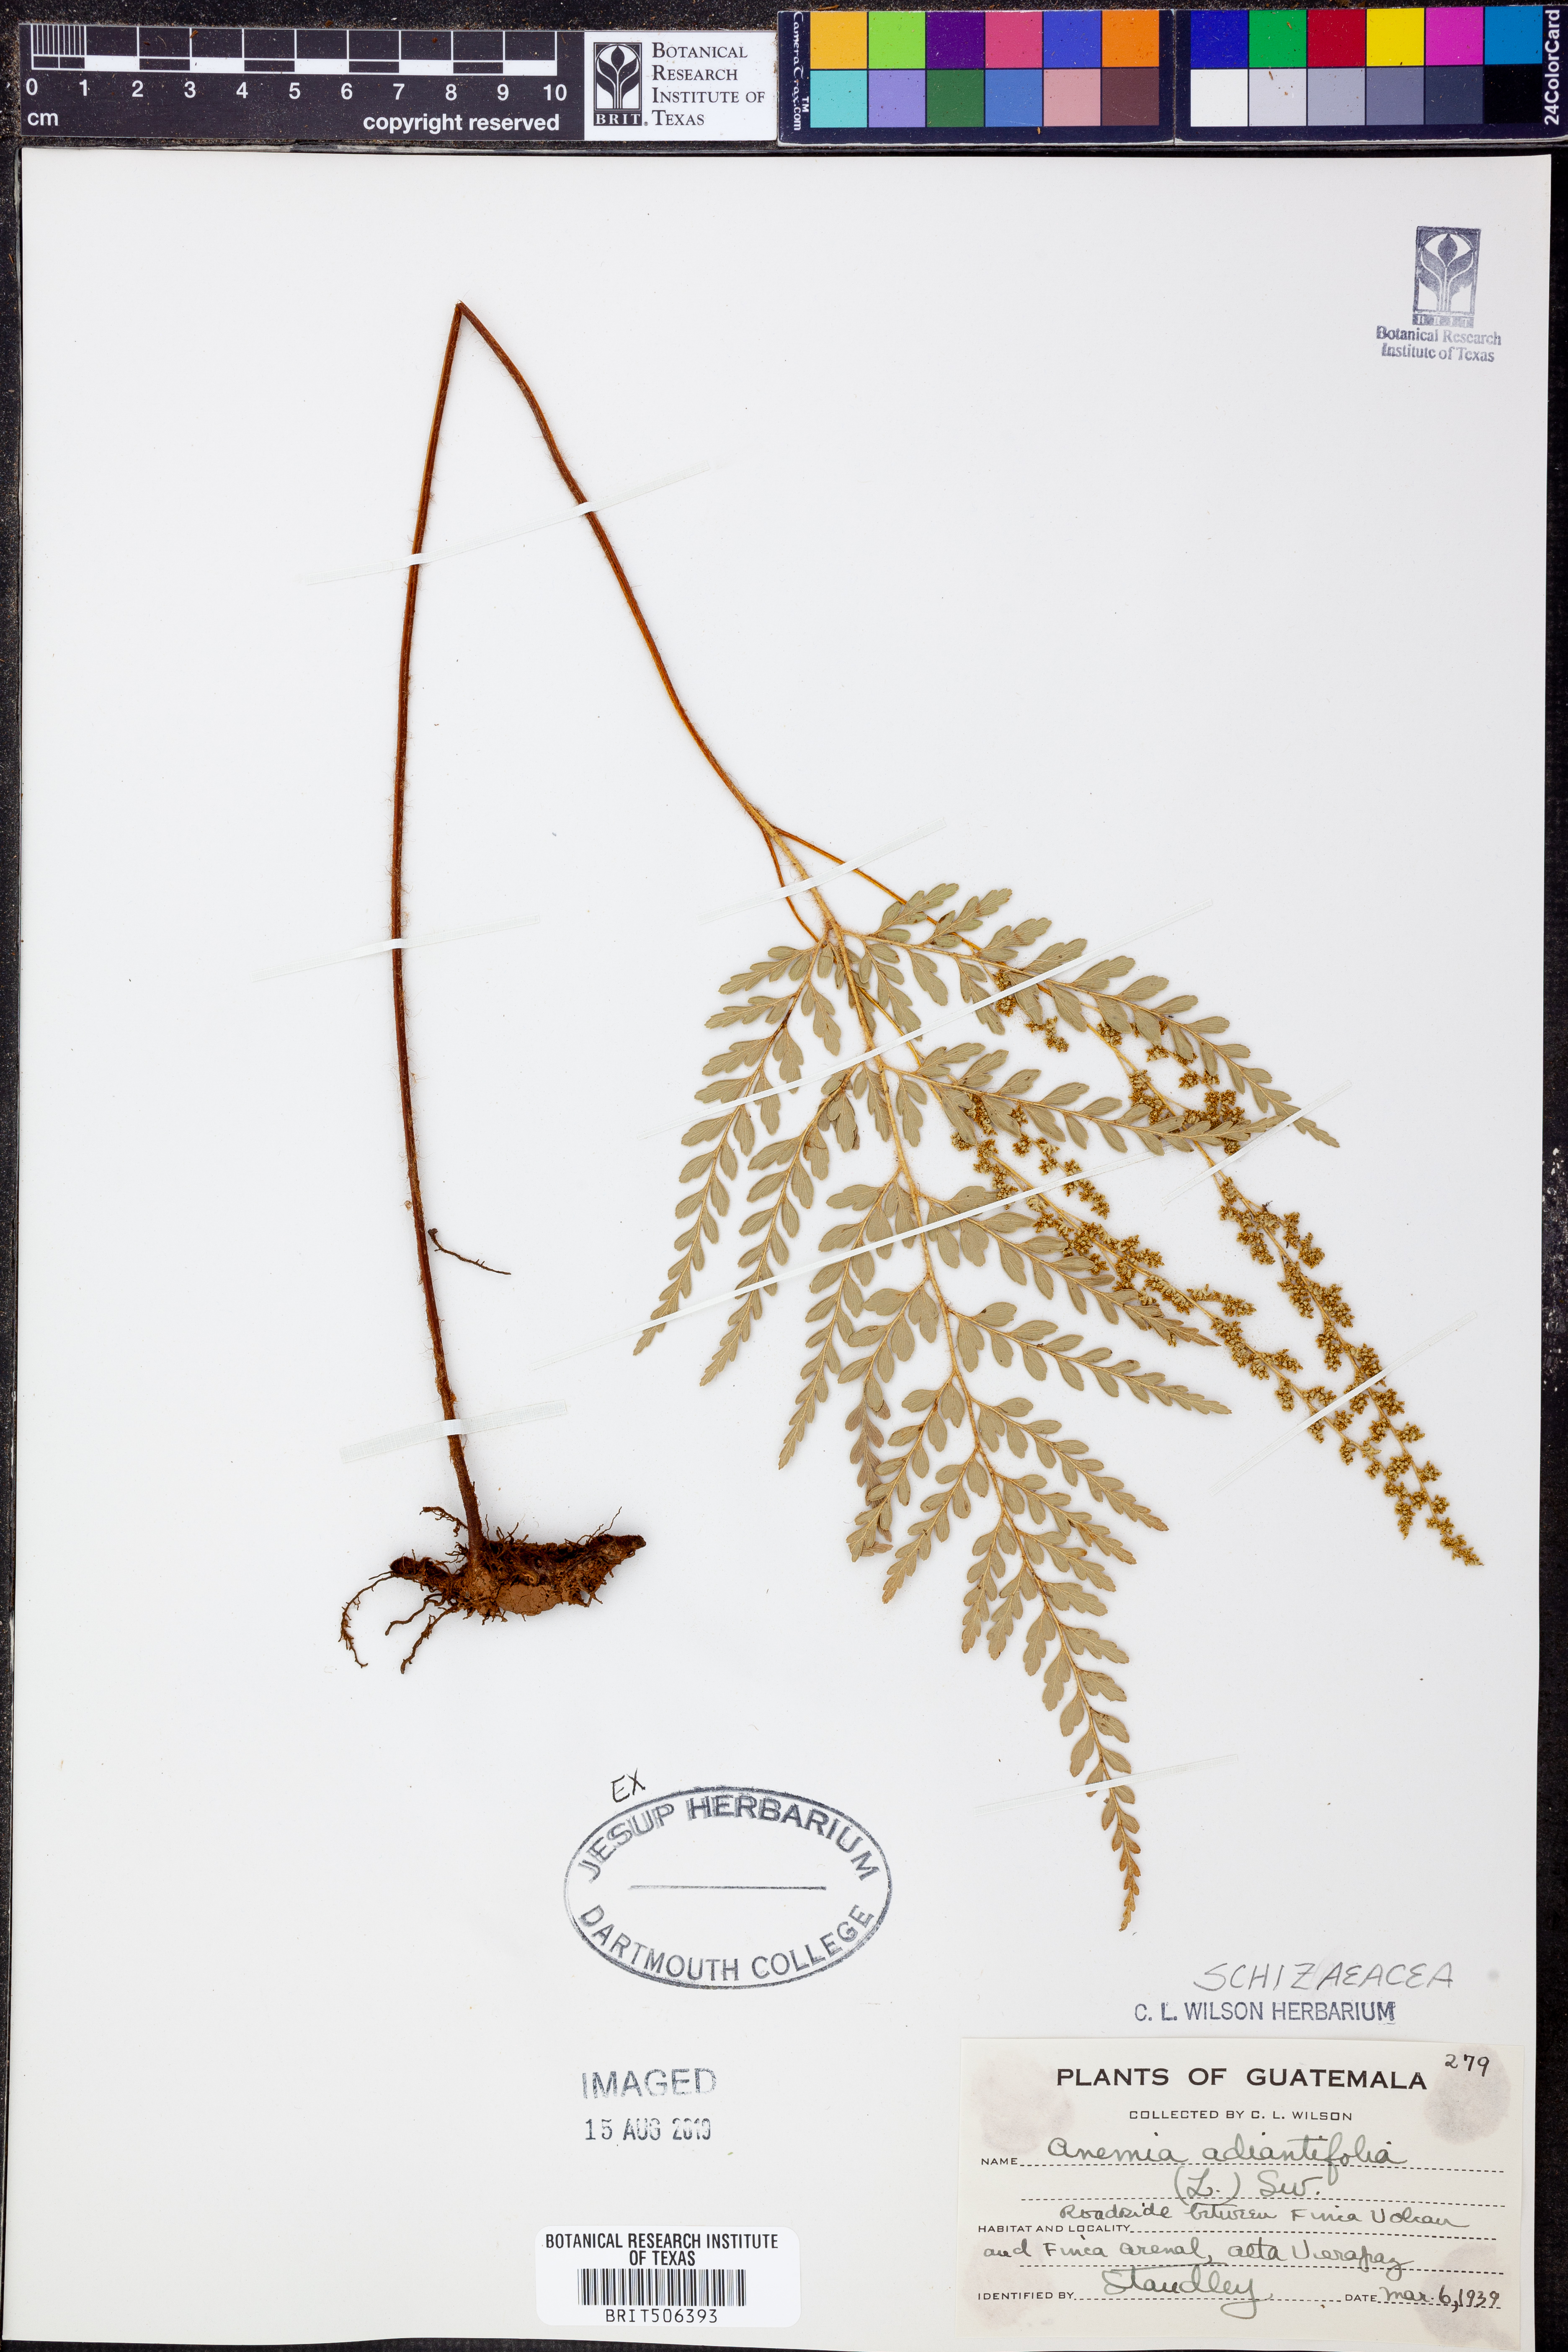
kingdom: Plantae
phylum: Tracheophyta
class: Polypodiopsida
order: Schizaeales
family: Anemiaceae
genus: Anemia
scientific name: Anemia adiantifolia
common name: Pine fern
